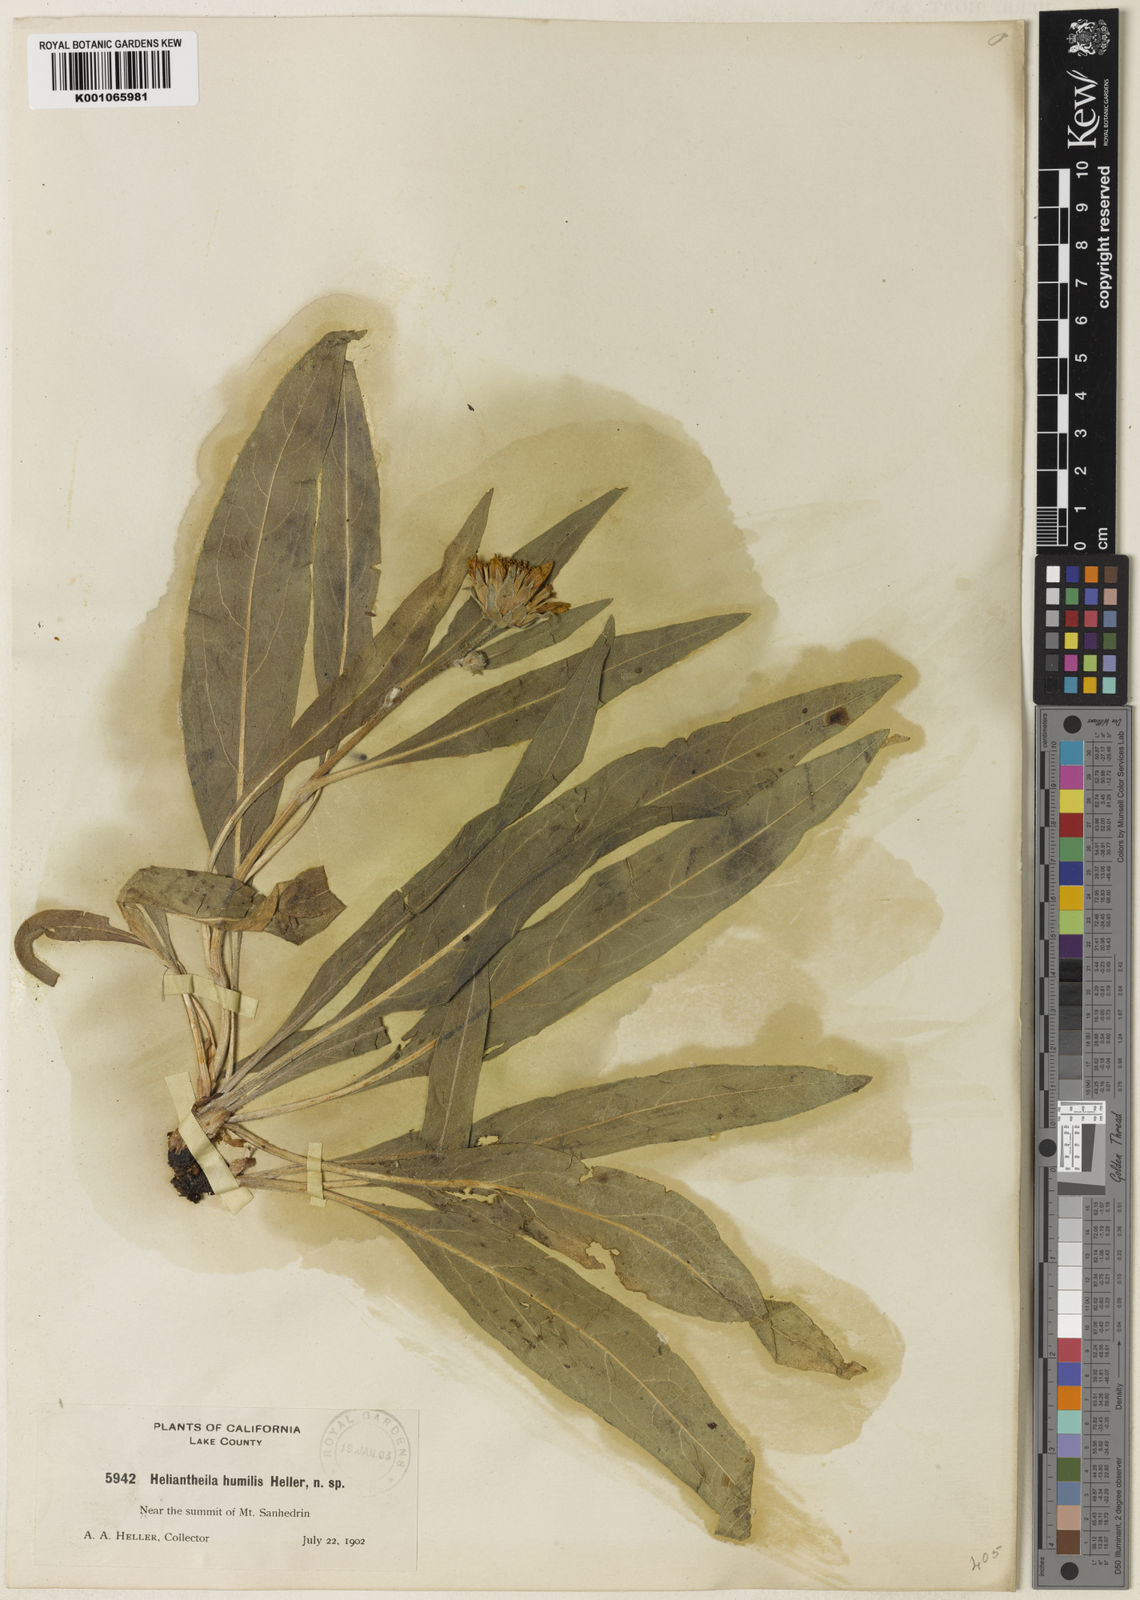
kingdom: Plantae
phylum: Tracheophyta
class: Magnoliopsida
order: Asterales
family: Asteraceae
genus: Helianthella
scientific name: Helianthella
